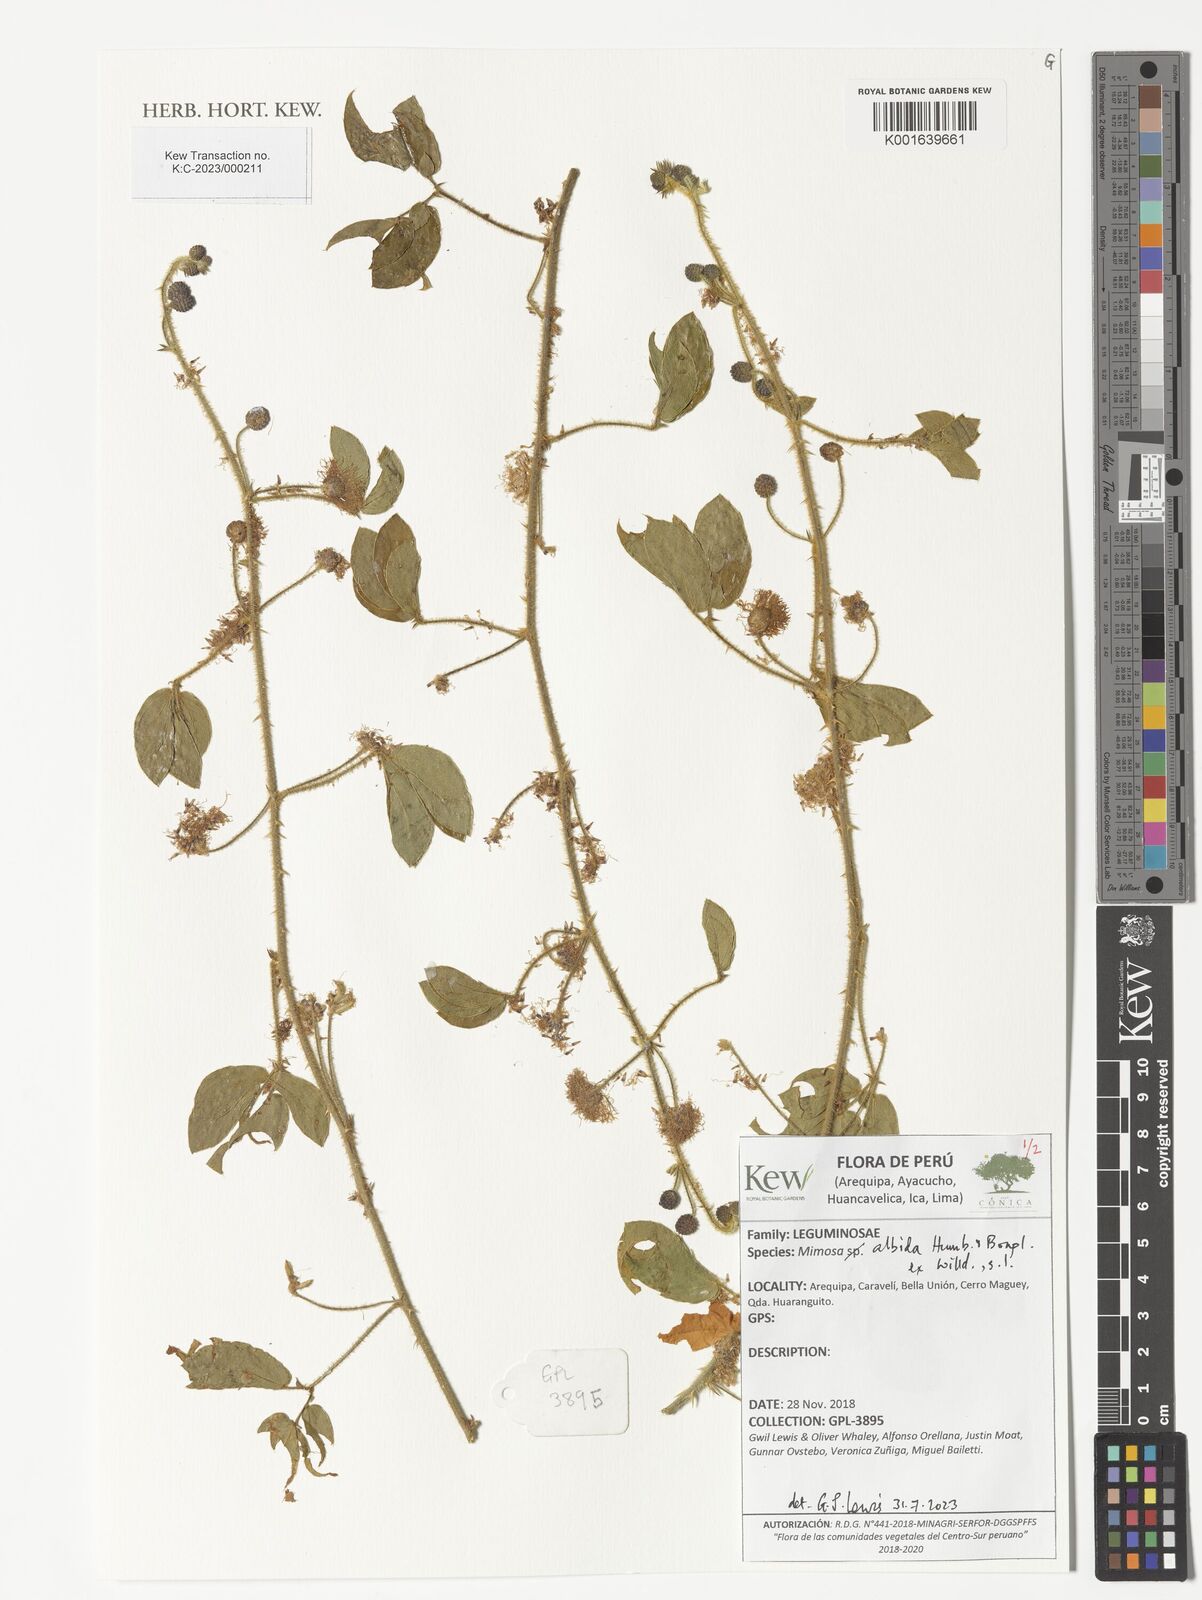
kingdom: Plantae
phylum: Tracheophyta
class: Magnoliopsida
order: Fabales
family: Fabaceae
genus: Mimosa
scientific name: Mimosa albida
